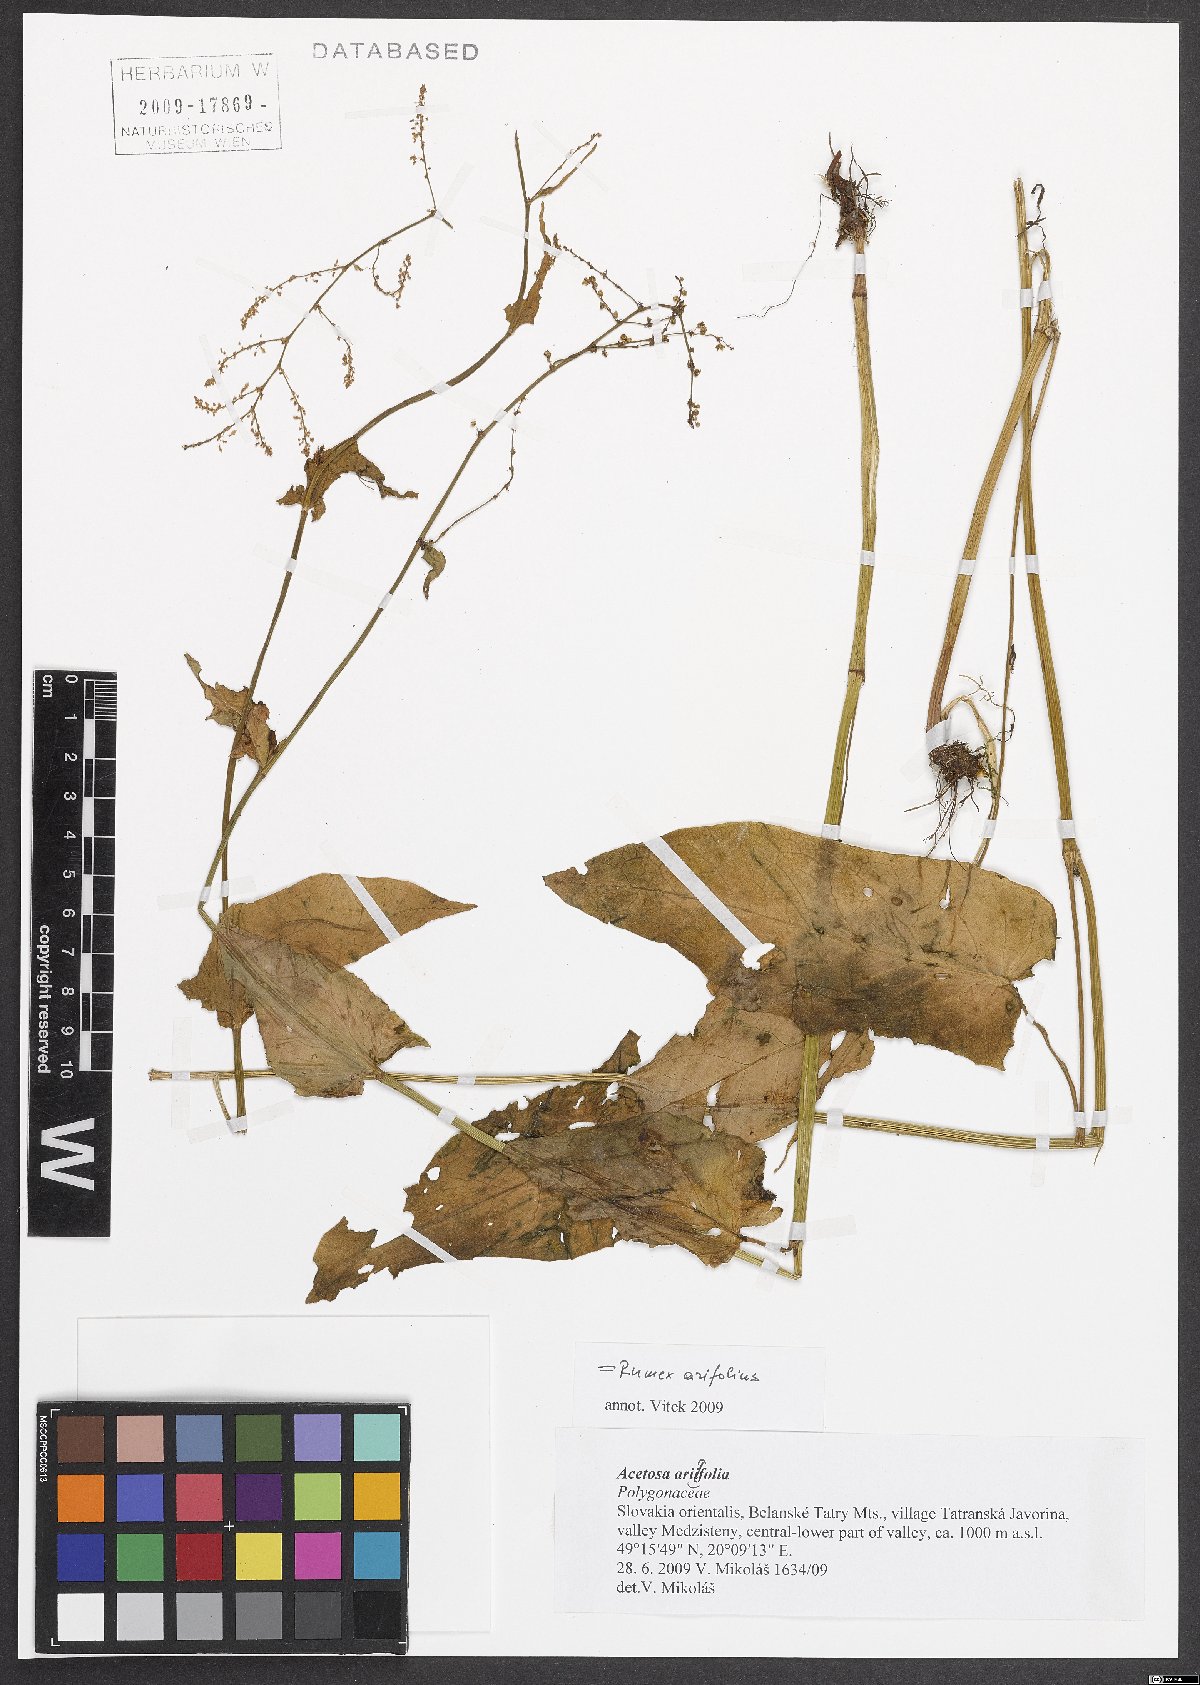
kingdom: Plantae
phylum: Tracheophyta
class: Magnoliopsida
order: Caryophyllales
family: Polygonaceae
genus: Rumex
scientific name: Rumex arifolius
